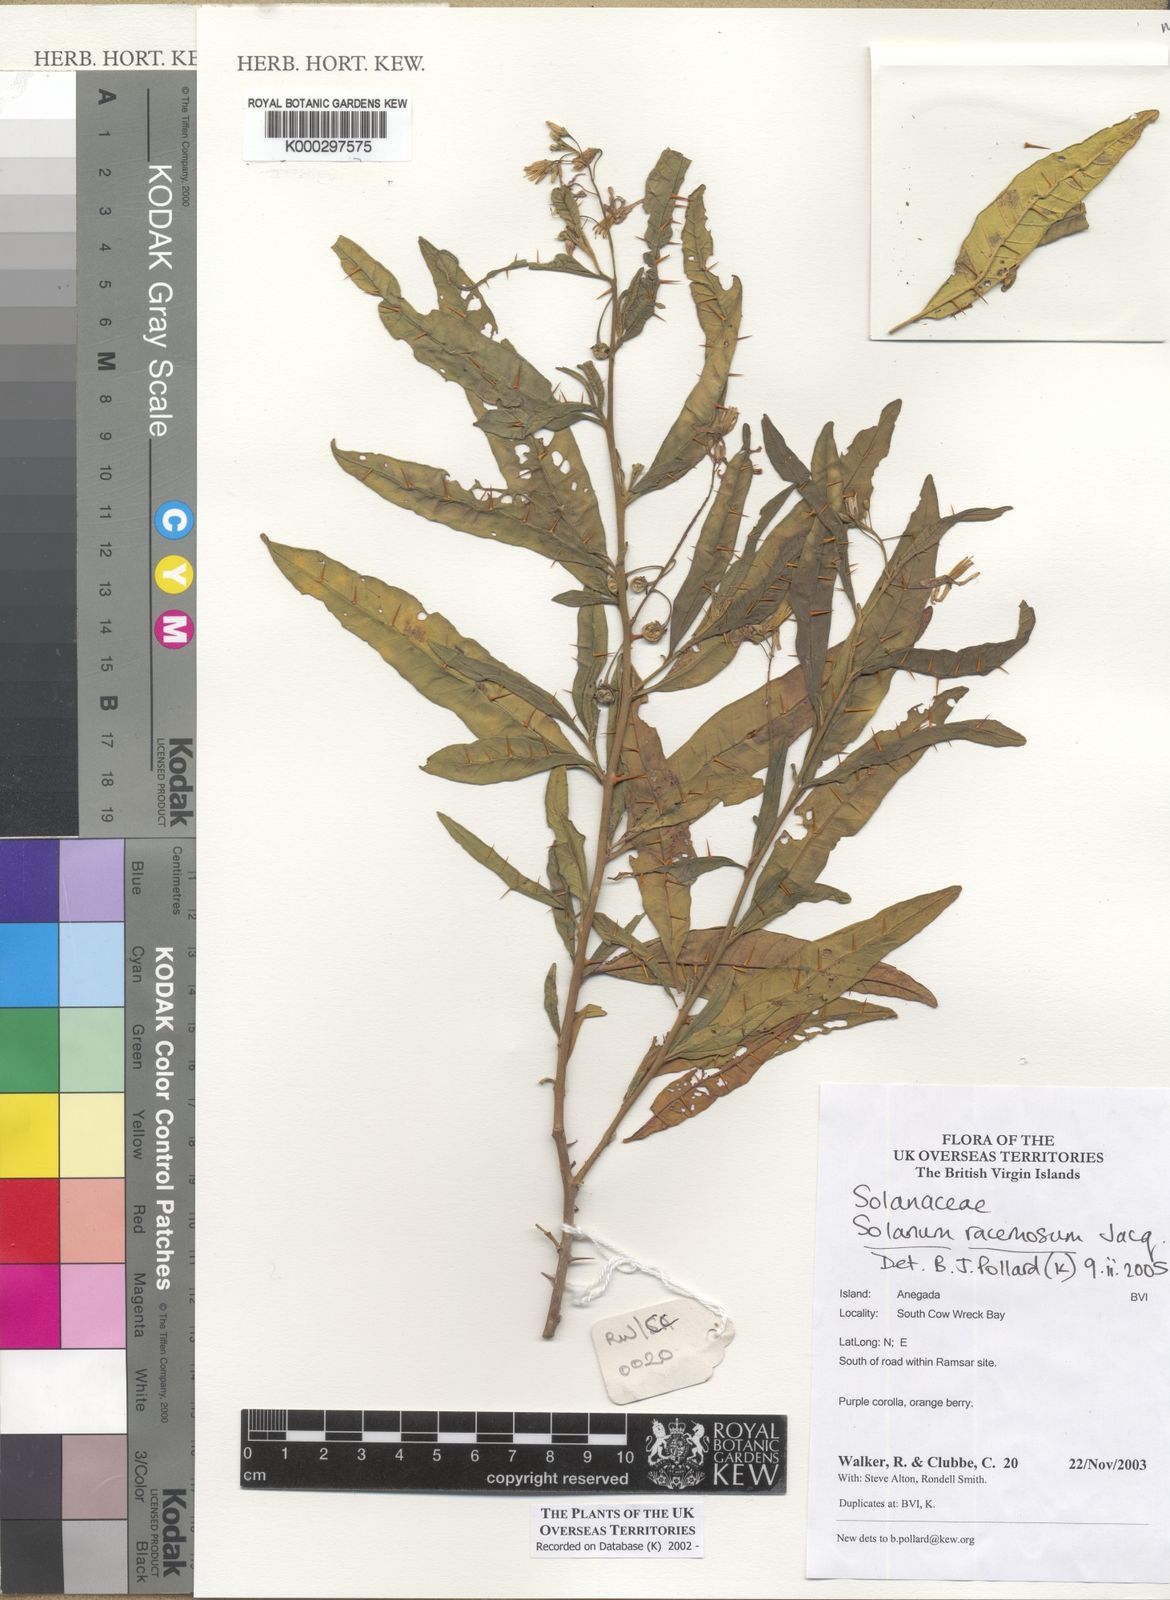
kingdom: Plantae
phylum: Tracheophyta
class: Magnoliopsida
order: Solanales
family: Solanaceae
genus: Solanum
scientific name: Solanum bahamense
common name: Canker-berry
